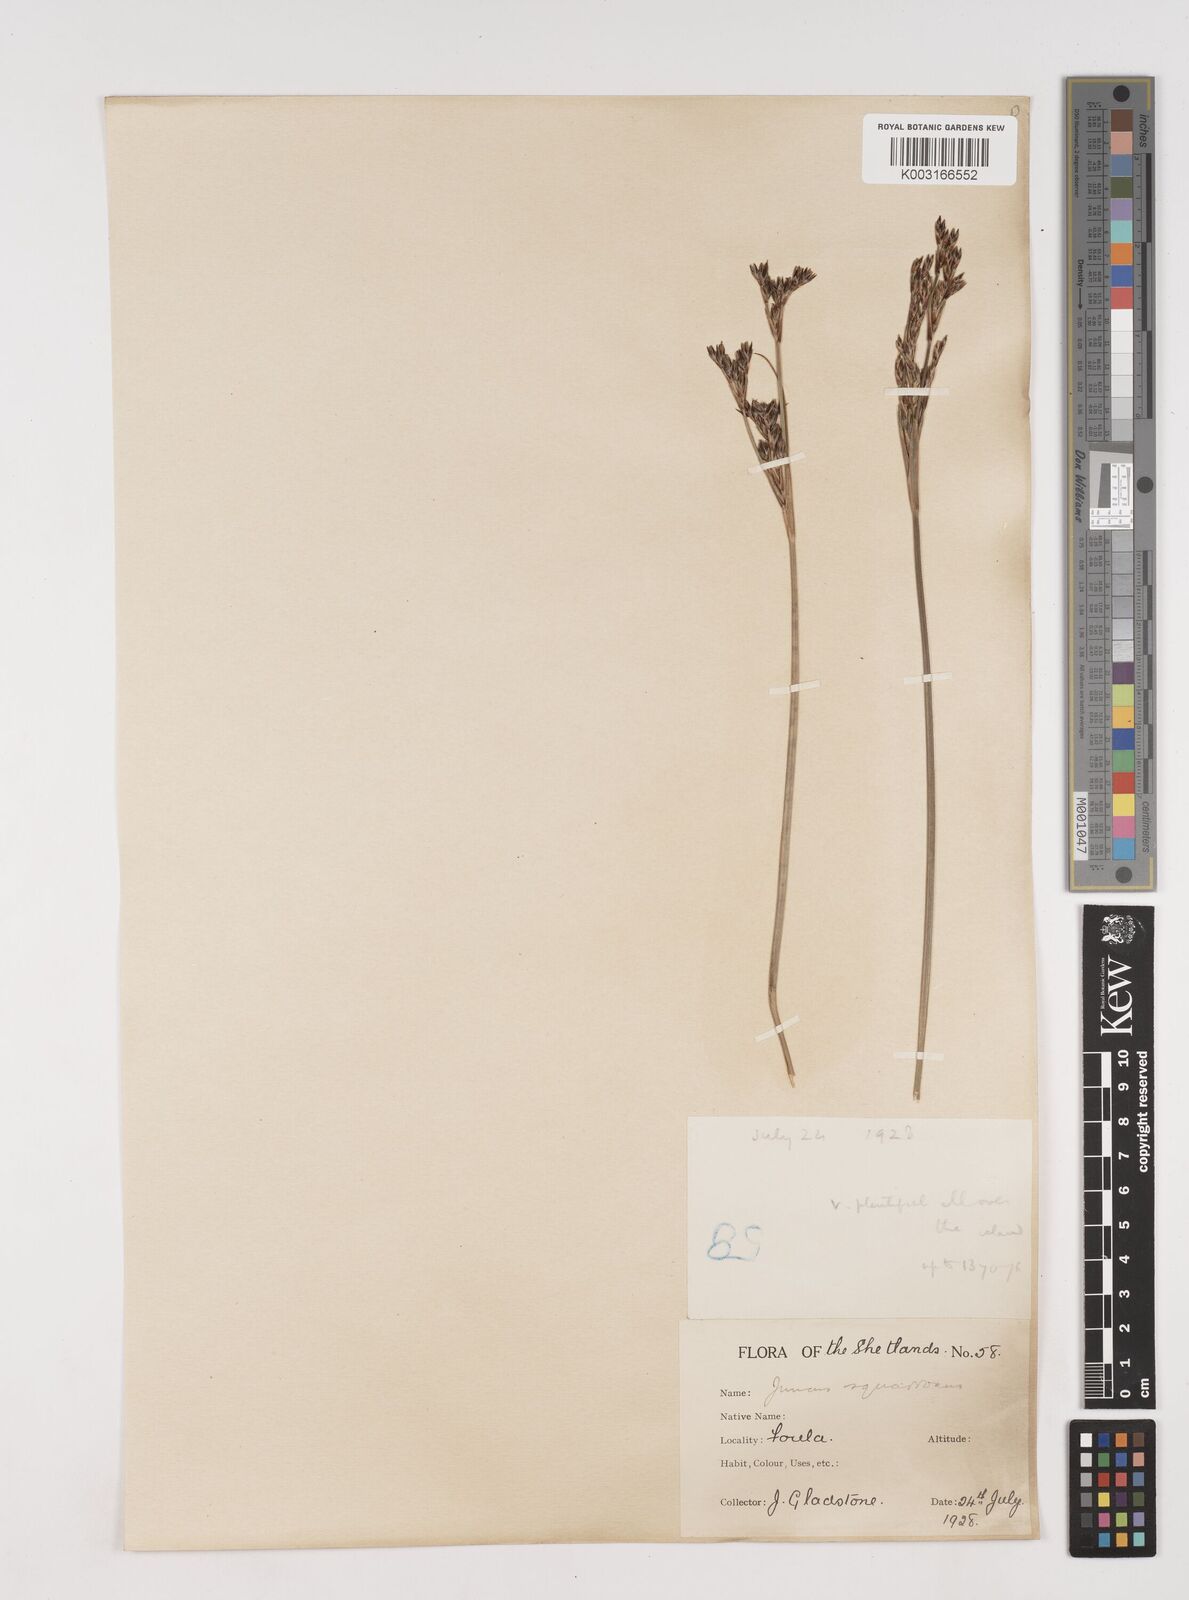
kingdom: Plantae
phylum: Tracheophyta
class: Liliopsida
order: Poales
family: Juncaceae
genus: Juncus
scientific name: Juncus squarrosus
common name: Heath rush
